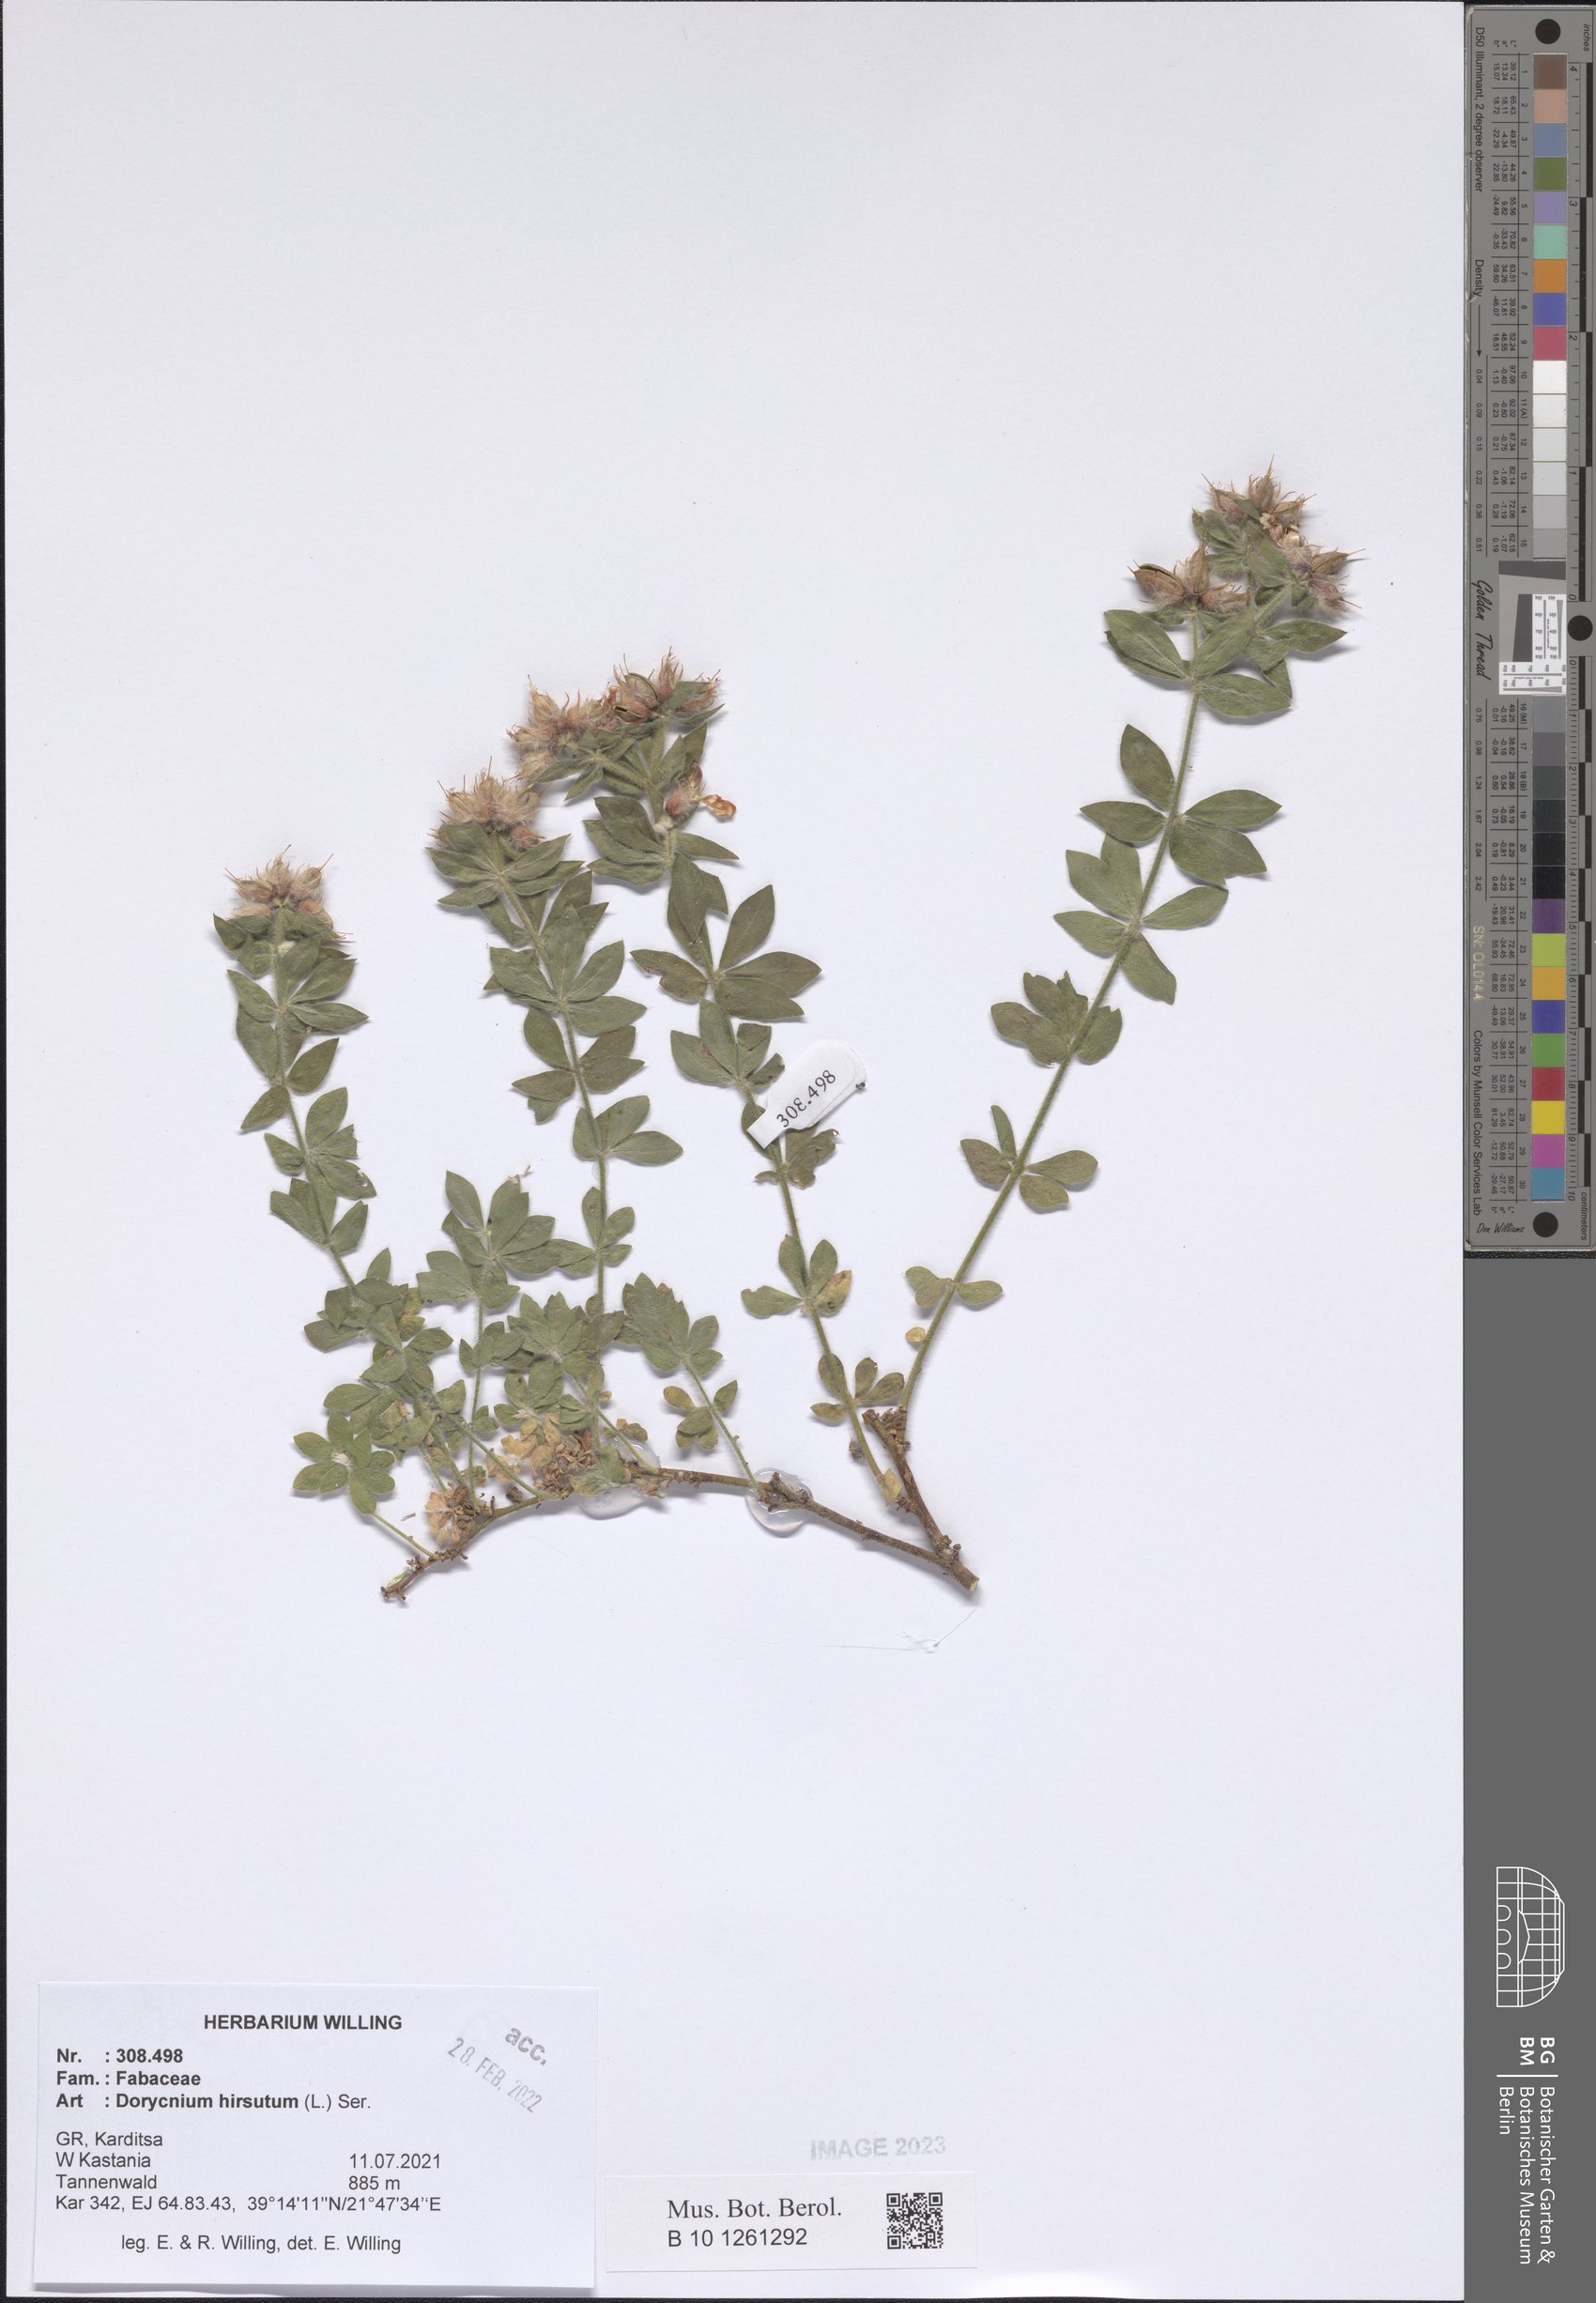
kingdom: Plantae
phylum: Tracheophyta
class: Magnoliopsida
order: Fabales
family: Fabaceae
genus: Lotus
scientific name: Lotus hirsutus
